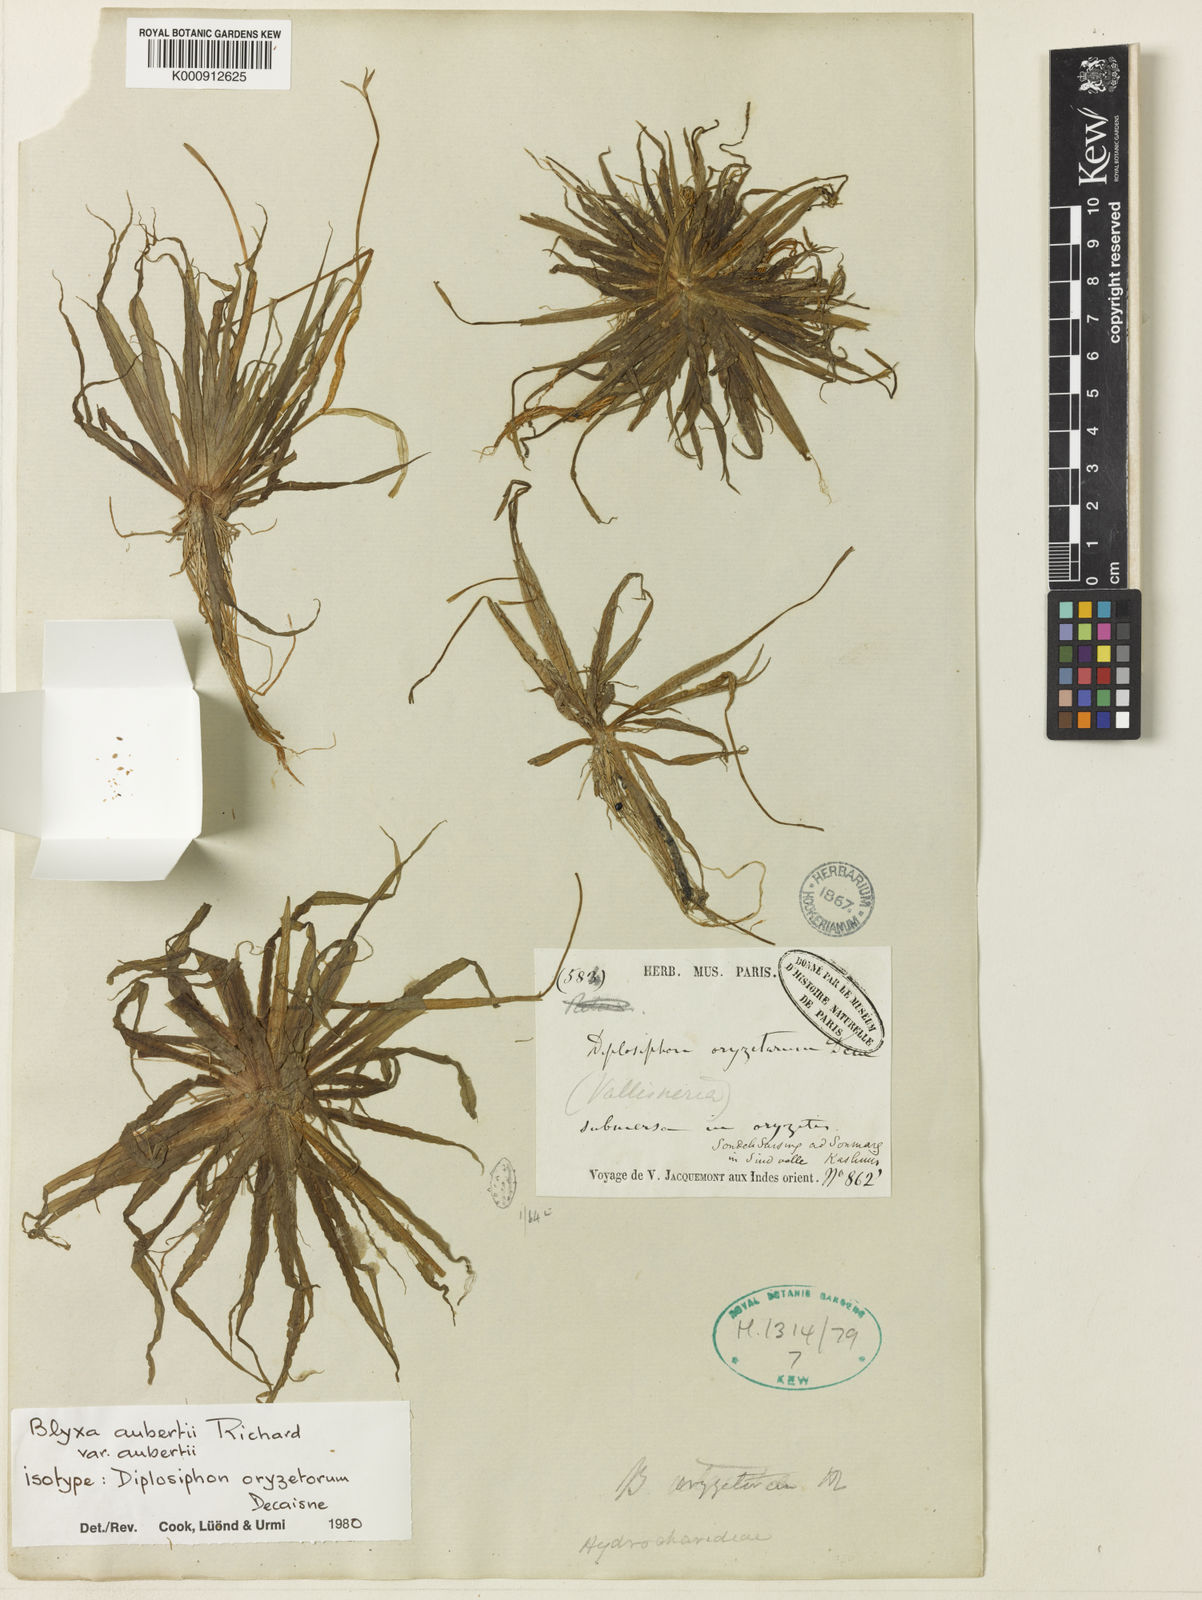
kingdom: Plantae
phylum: Tracheophyta
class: Liliopsida
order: Alismatales
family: Hydrocharitaceae
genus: Blyxa
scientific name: Blyxa aubertii
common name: Roundfruit blyxa
